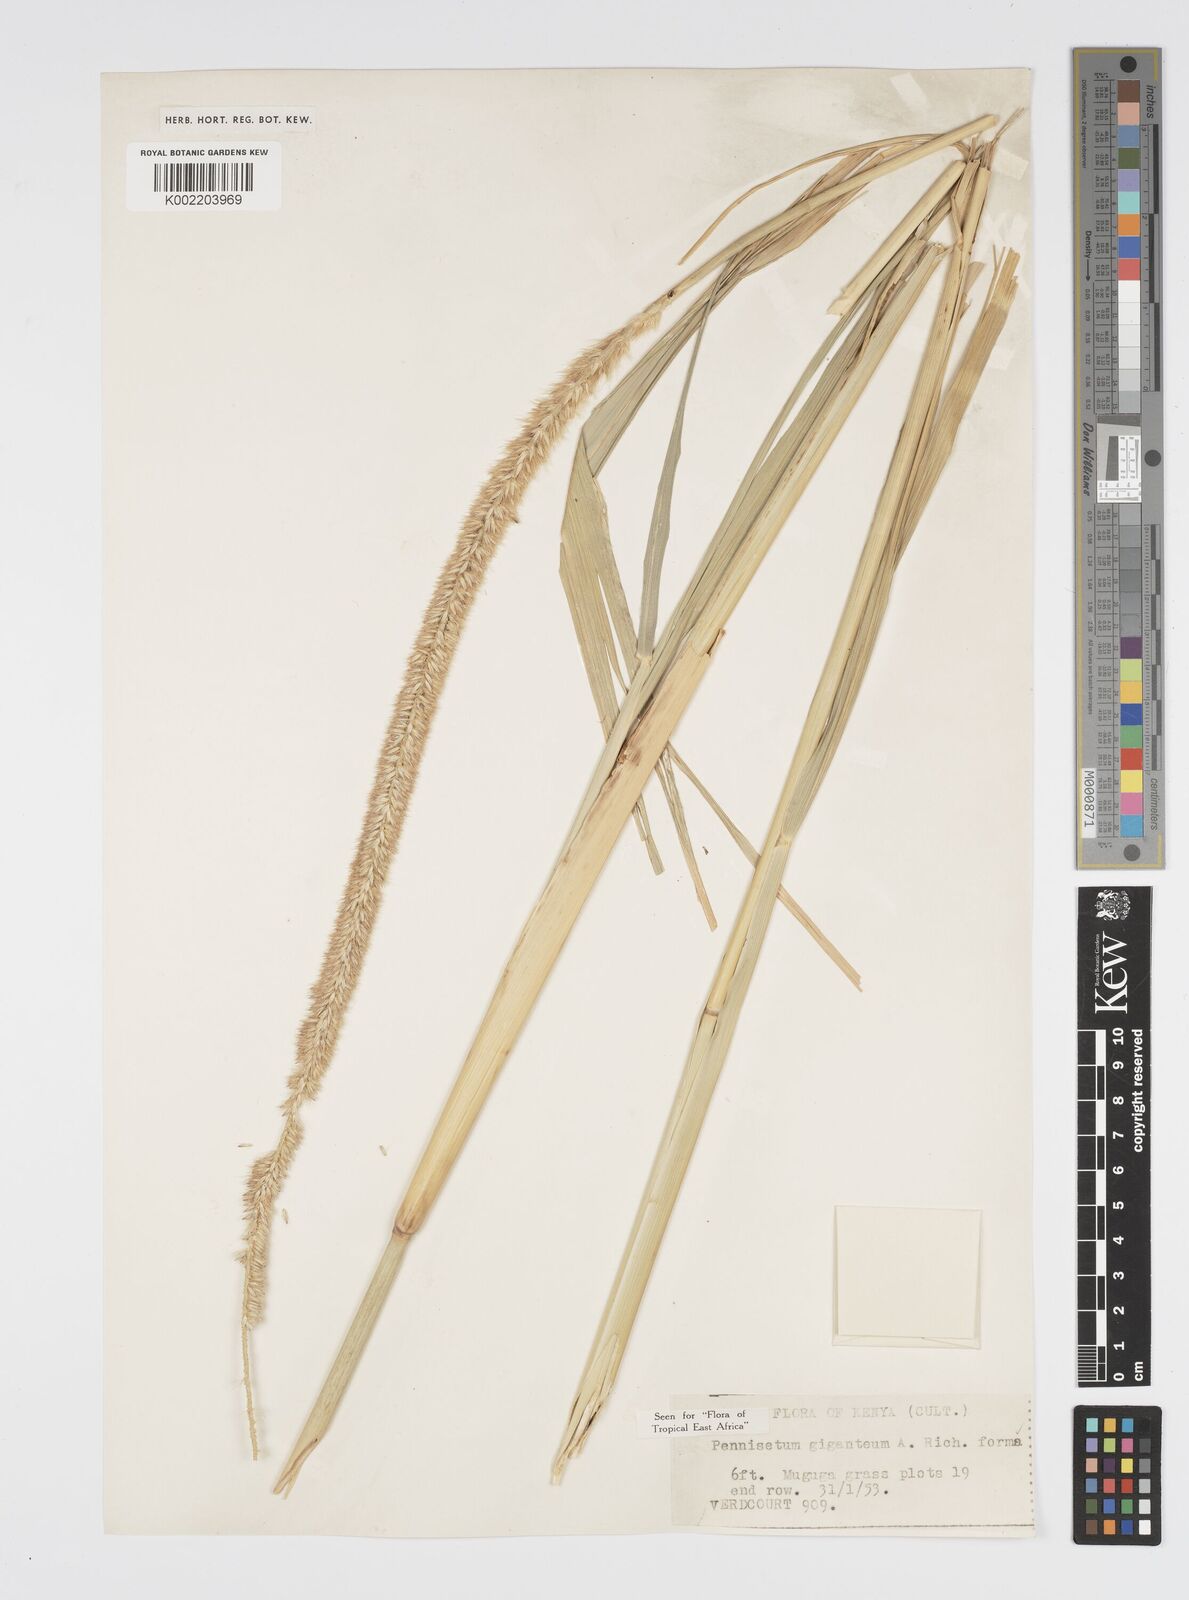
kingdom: Plantae
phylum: Tracheophyta
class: Liliopsida
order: Poales
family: Poaceae
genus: Cenchrus
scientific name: Cenchrus caudatus
